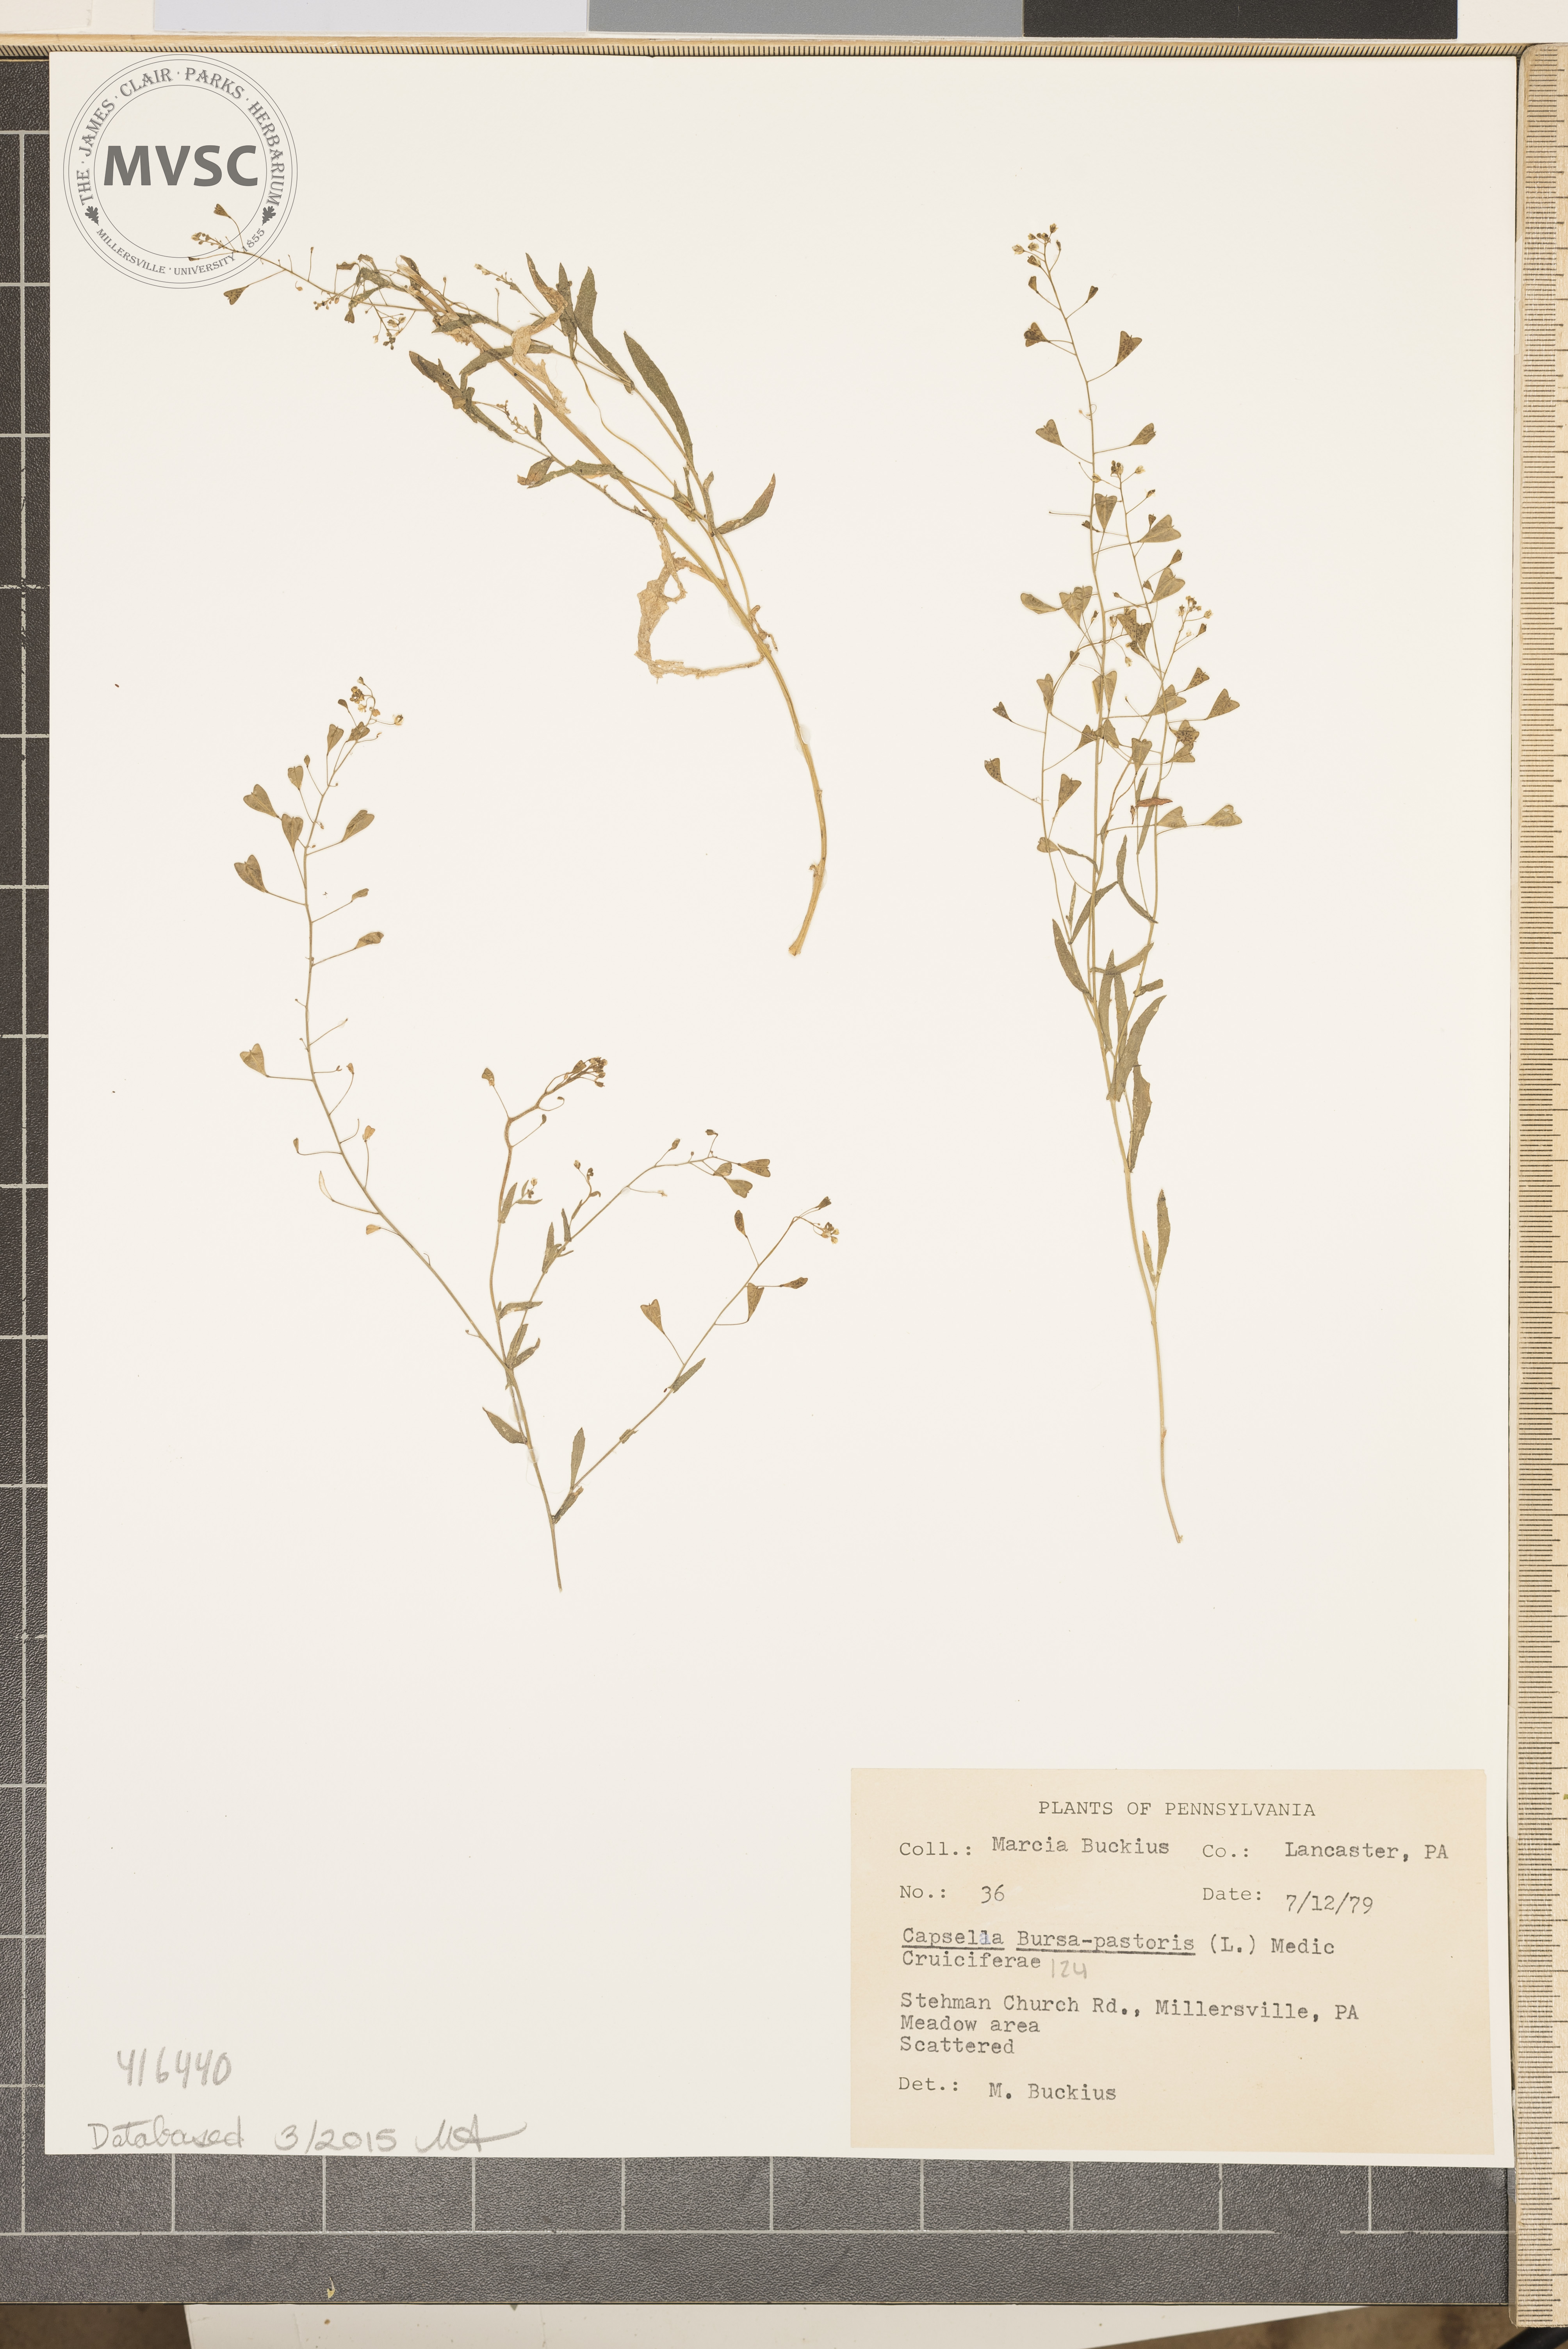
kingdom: Plantae
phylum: Tracheophyta
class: Magnoliopsida
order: Brassicales
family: Brassicaceae
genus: Capsella
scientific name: Capsella bursa-pastoris
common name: Shepherd's purse
